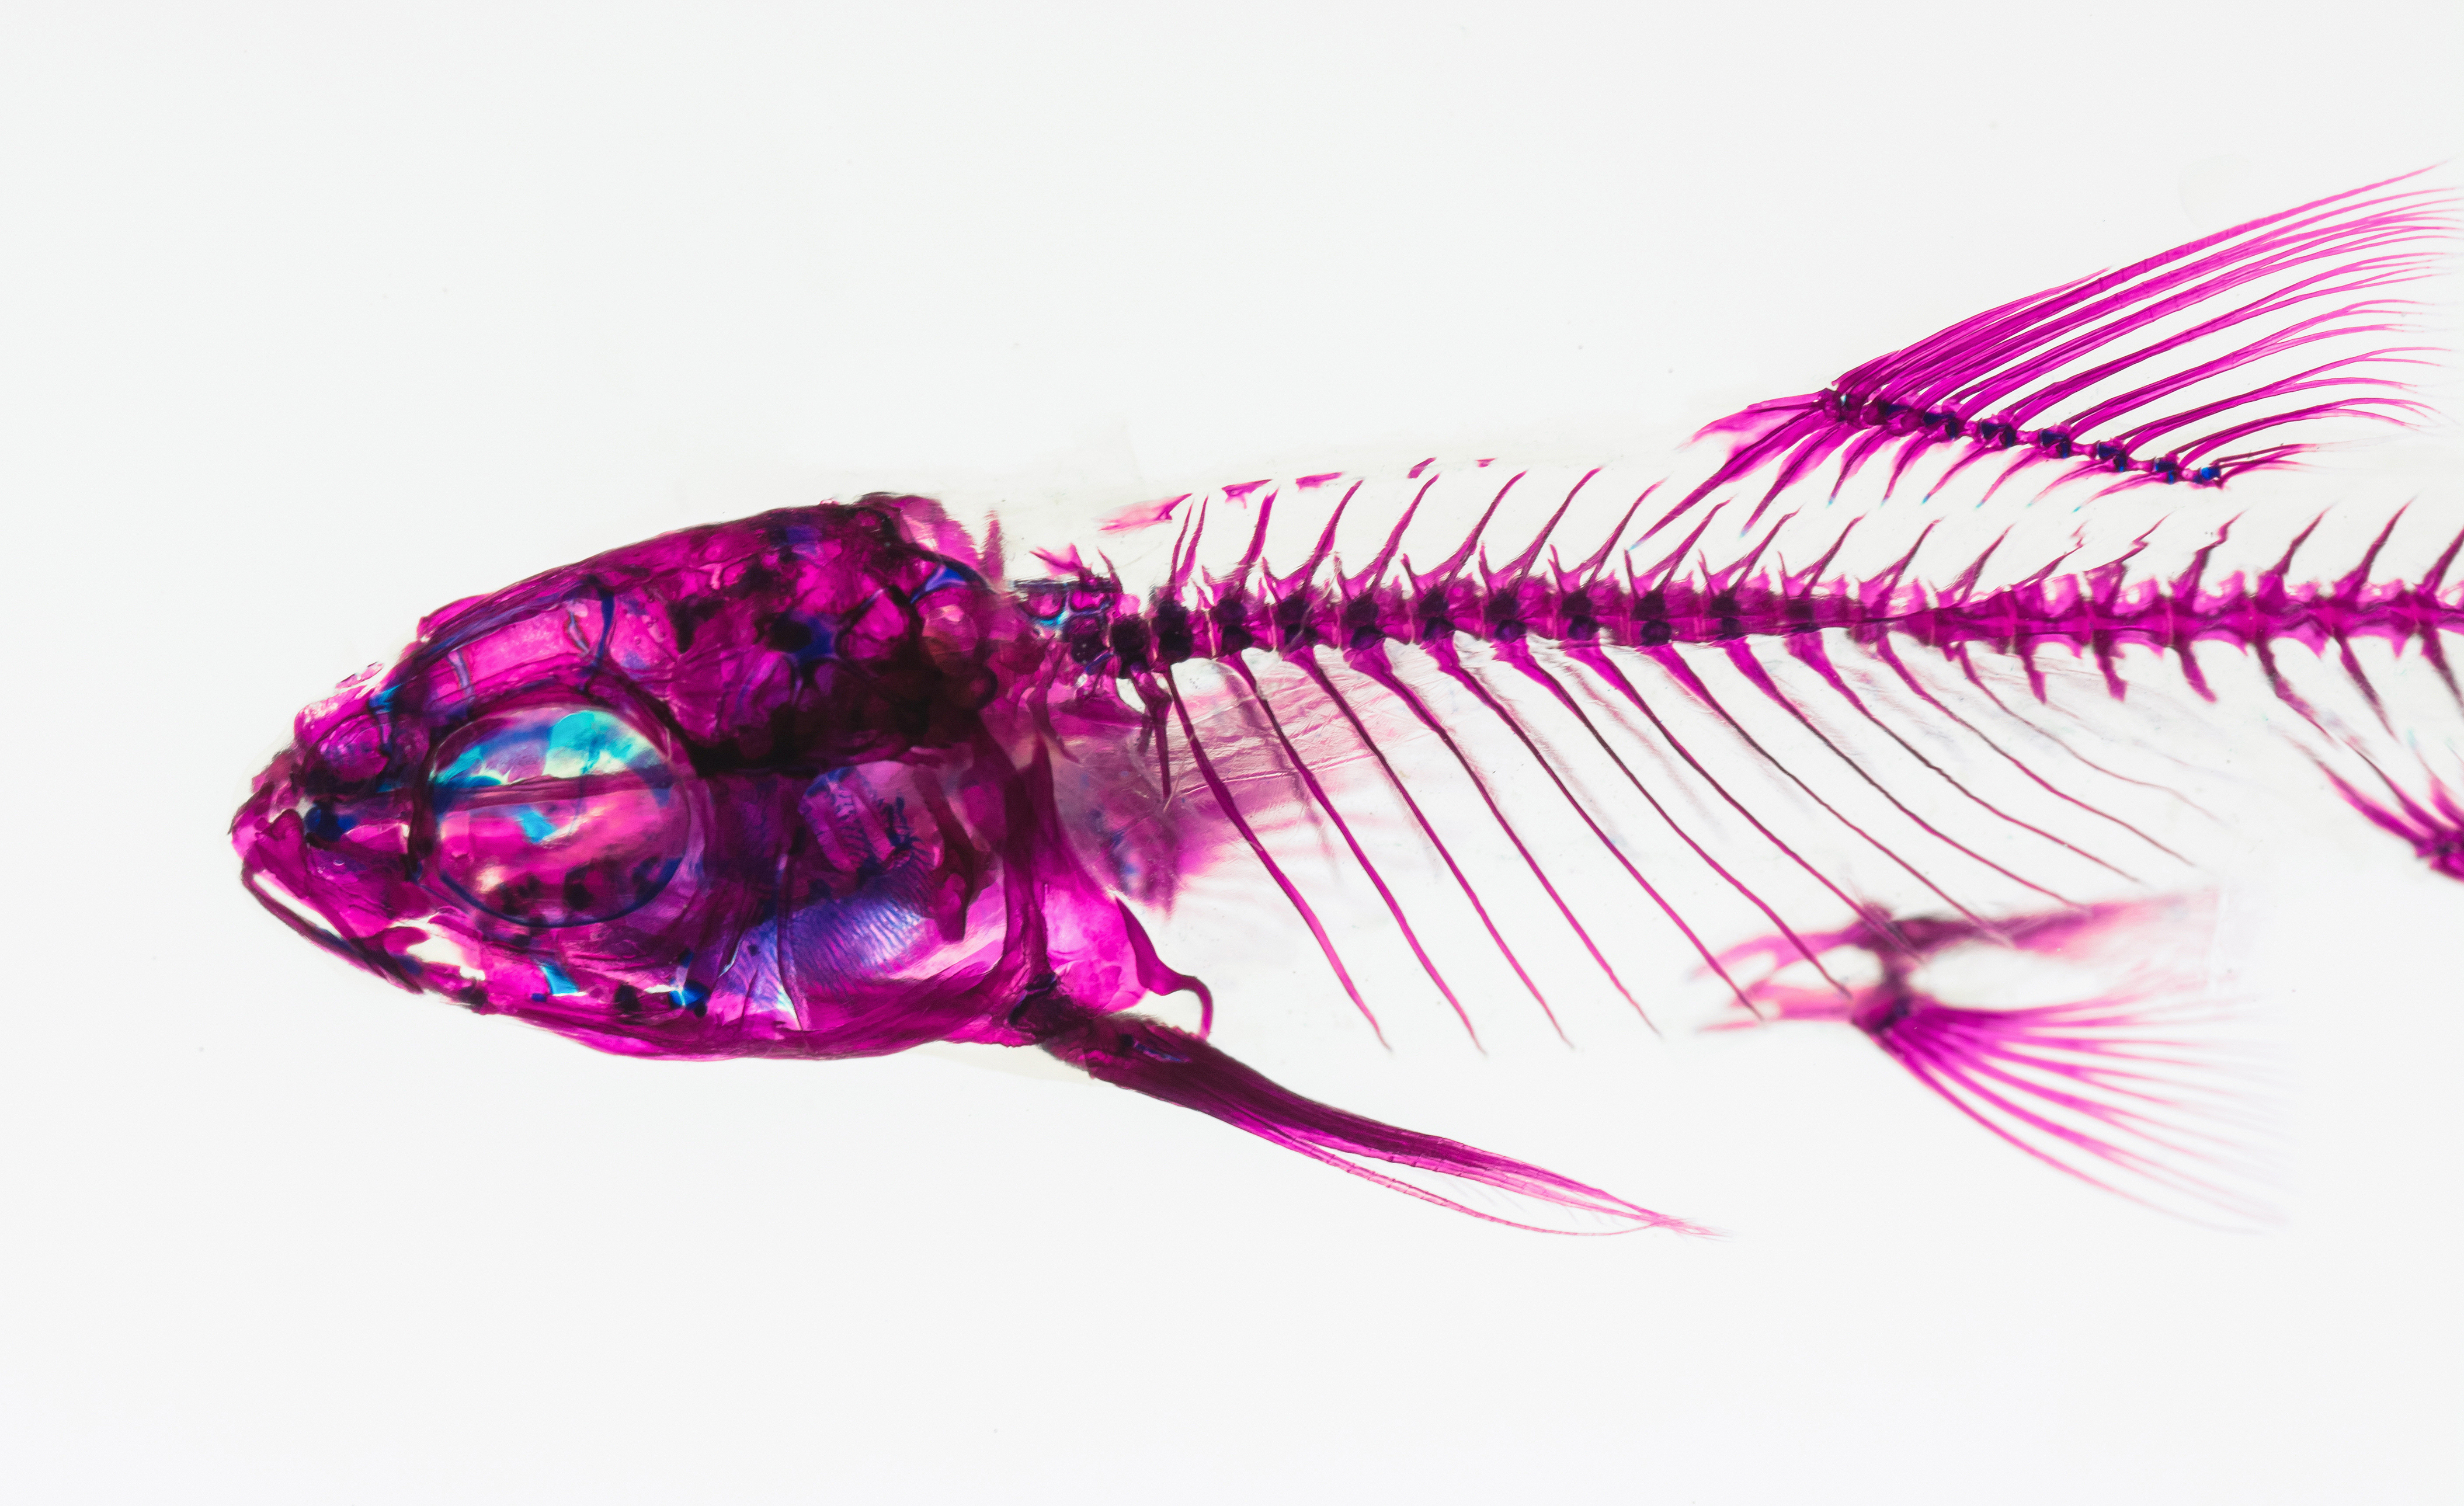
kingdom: Animalia
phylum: Chordata
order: Cypriniformes
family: Cyprinidae
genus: Notropis
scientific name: Notropis chihuahua
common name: Chihuahua shiner
